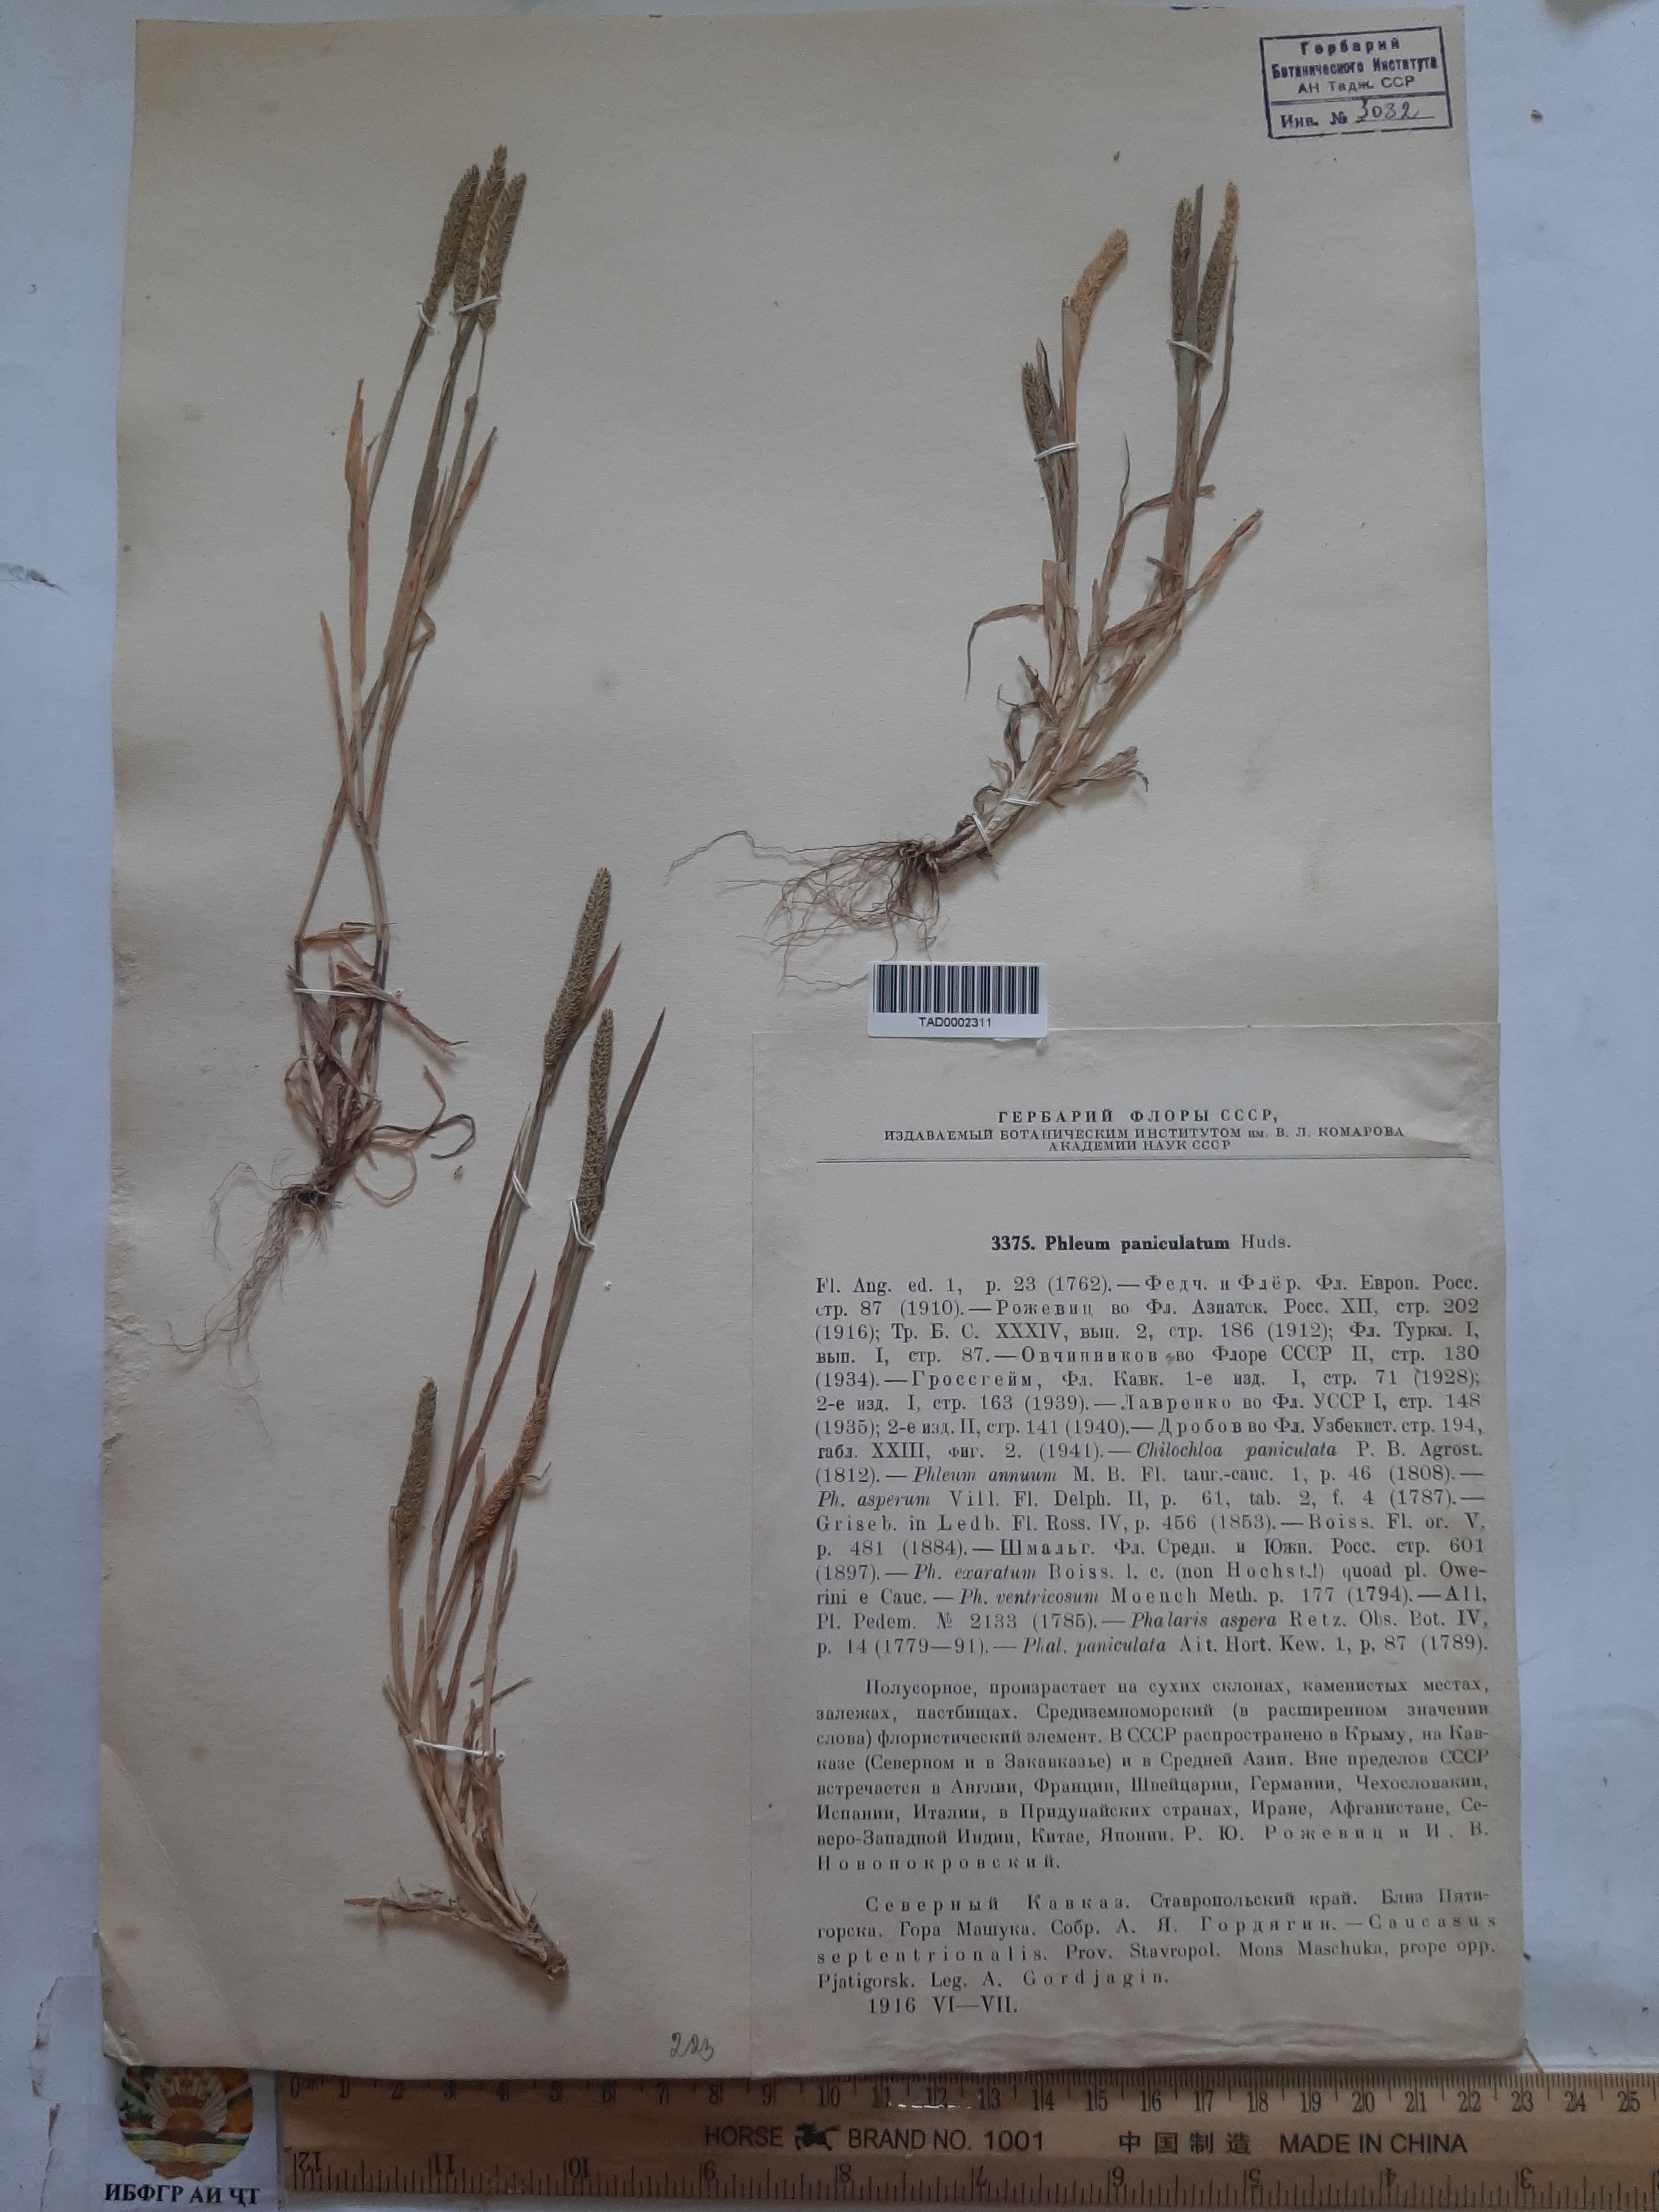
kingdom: Plantae
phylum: Tracheophyta
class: Liliopsida
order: Poales
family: Poaceae
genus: Phleum
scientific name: Phleum paniculatum
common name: British timothy
